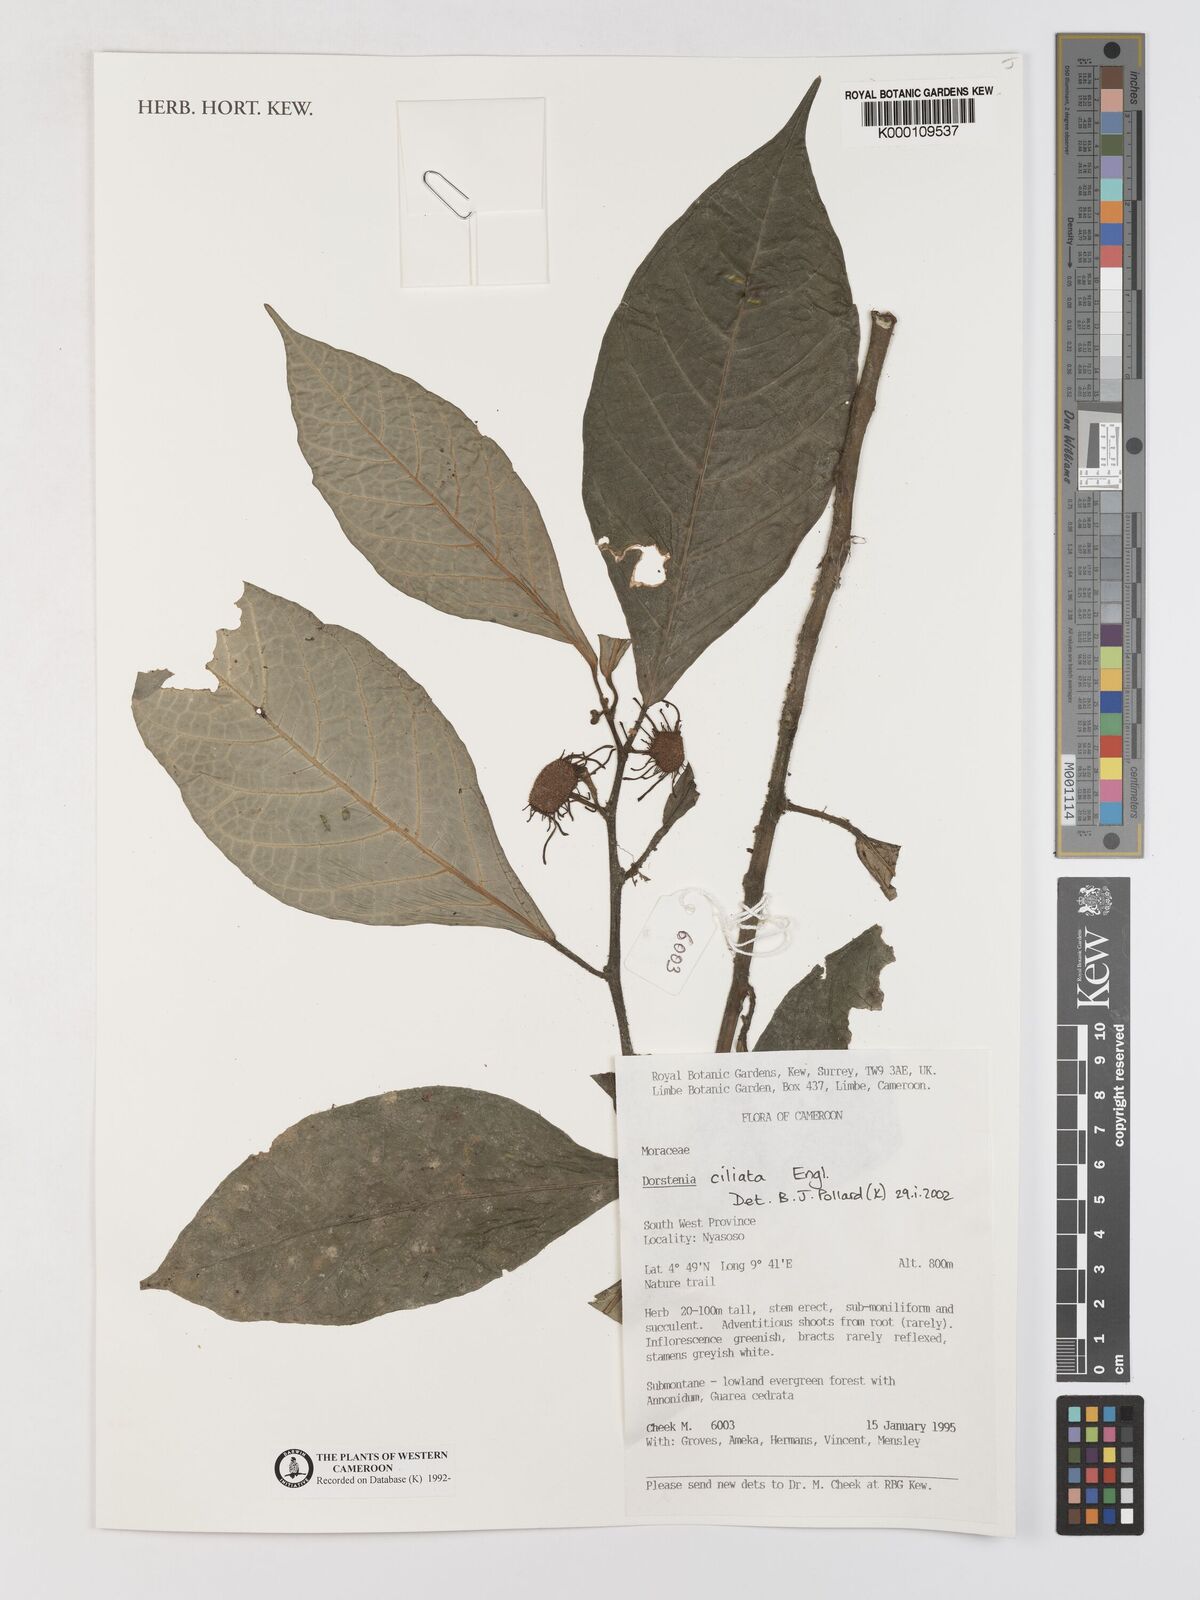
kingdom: Plantae
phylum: Tracheophyta
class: Magnoliopsida
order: Rosales
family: Moraceae
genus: Dorstenia
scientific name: Dorstenia ciliata
